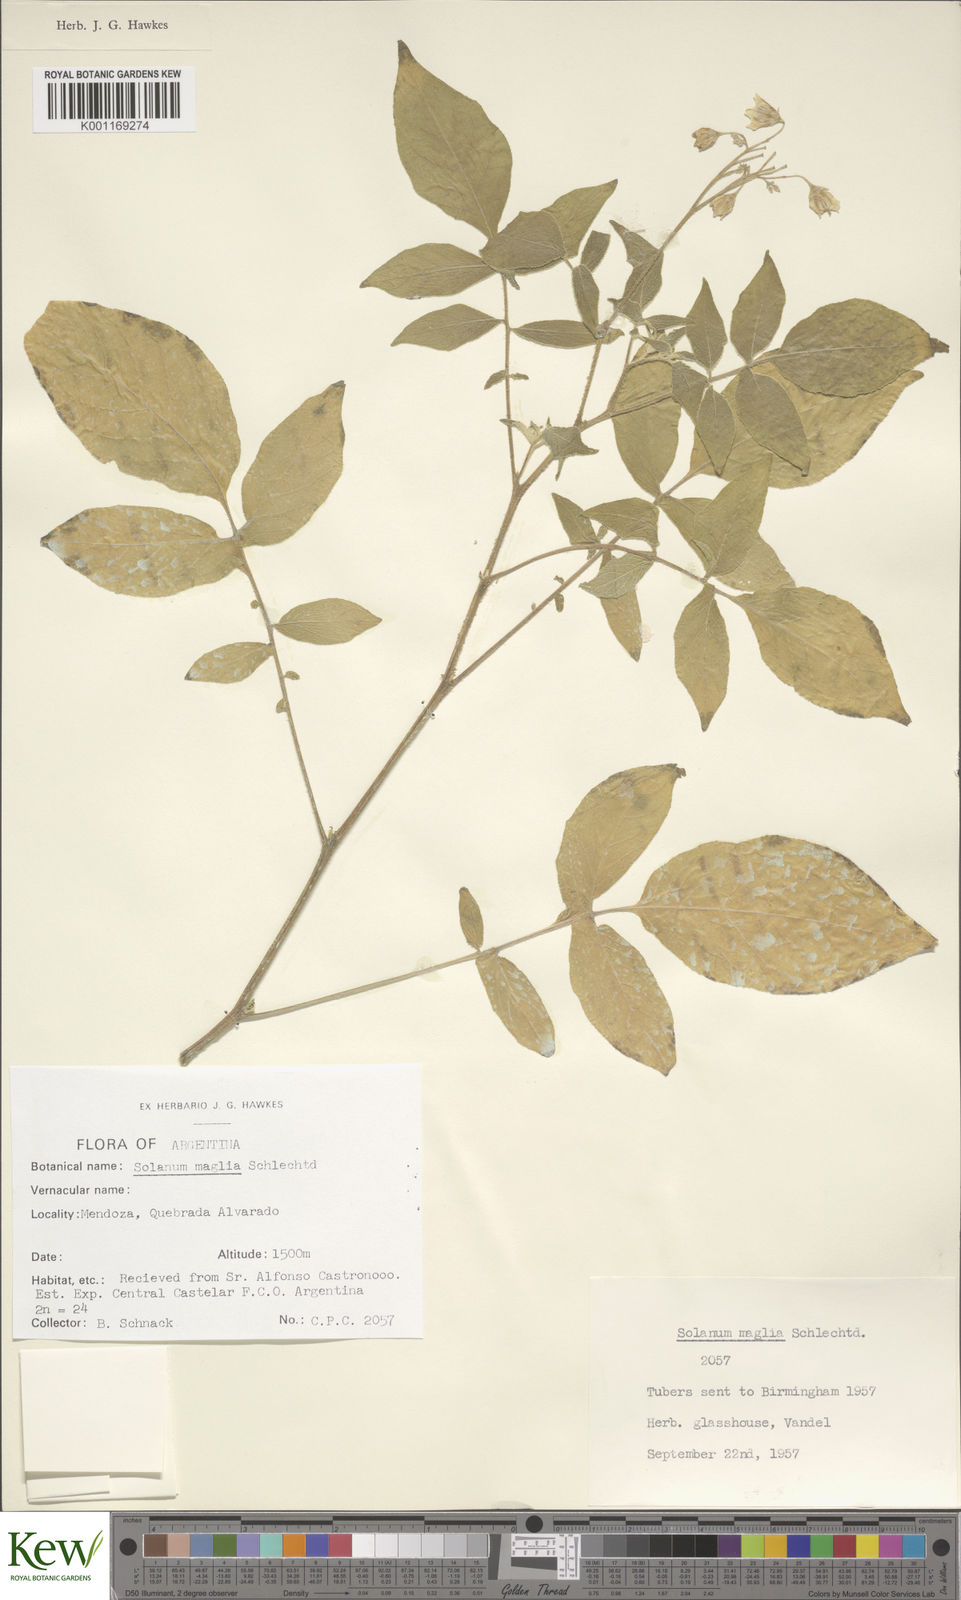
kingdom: Plantae
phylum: Tracheophyta
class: Magnoliopsida
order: Solanales
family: Solanaceae
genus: Solanum
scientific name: Solanum maglia
